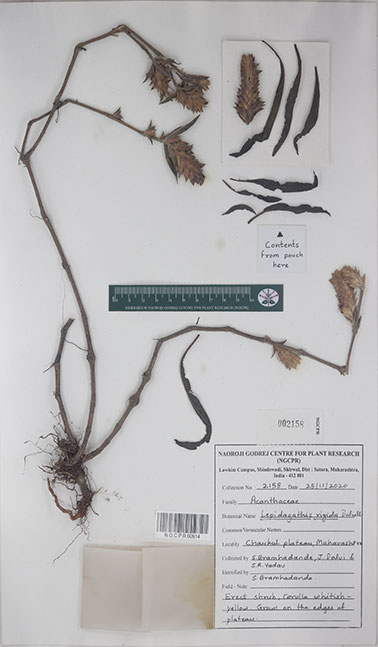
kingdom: Plantae
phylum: Tracheophyta
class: Magnoliopsida
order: Lamiales
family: Acanthaceae
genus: Lepidagathis
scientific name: Lepidagathis rigida
